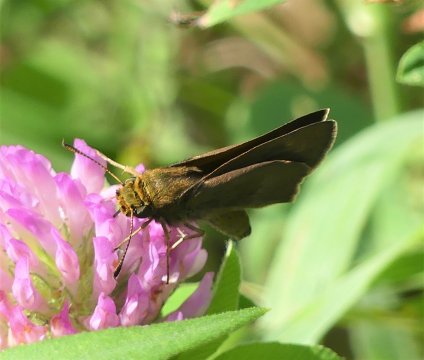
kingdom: Animalia
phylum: Arthropoda
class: Insecta
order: Lepidoptera
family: Hesperiidae
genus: Euphyes
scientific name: Euphyes vestris
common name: Dun Skipper
